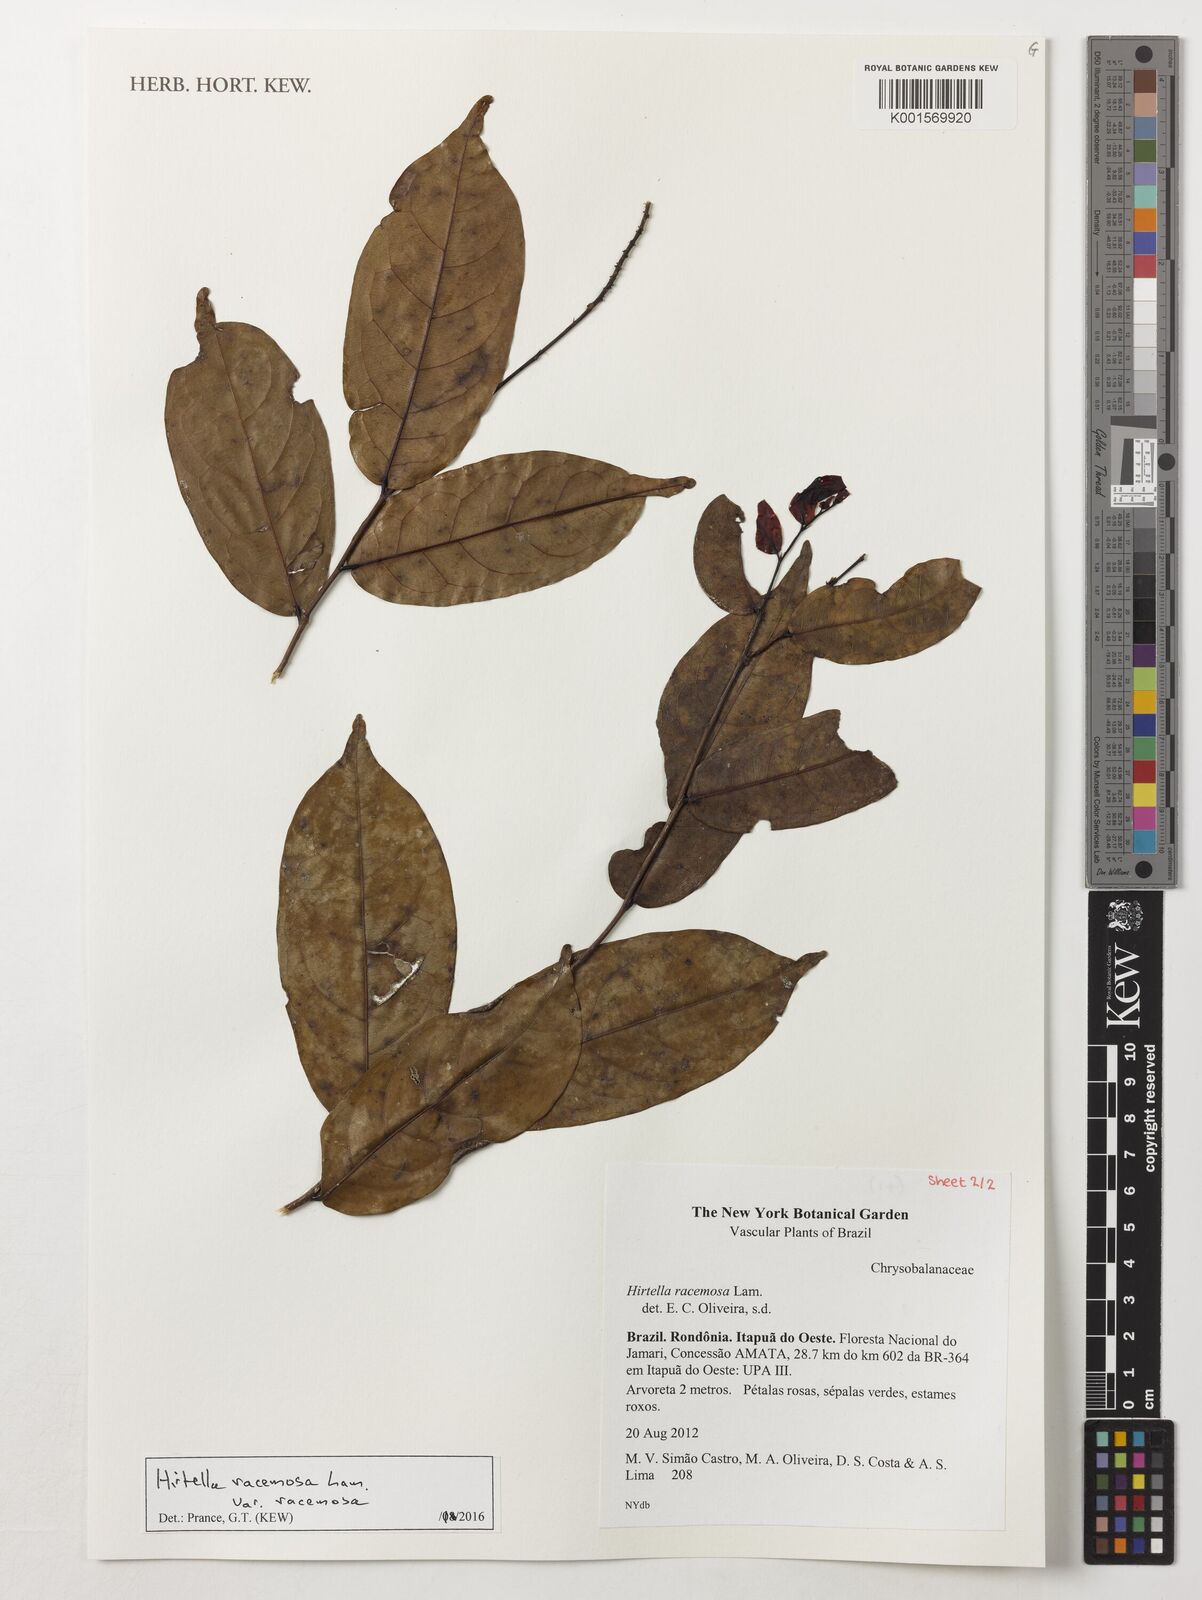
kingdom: Plantae
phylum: Tracheophyta
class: Magnoliopsida
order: Malpighiales
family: Chrysobalanaceae
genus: Hirtella
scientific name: Hirtella racemosa
